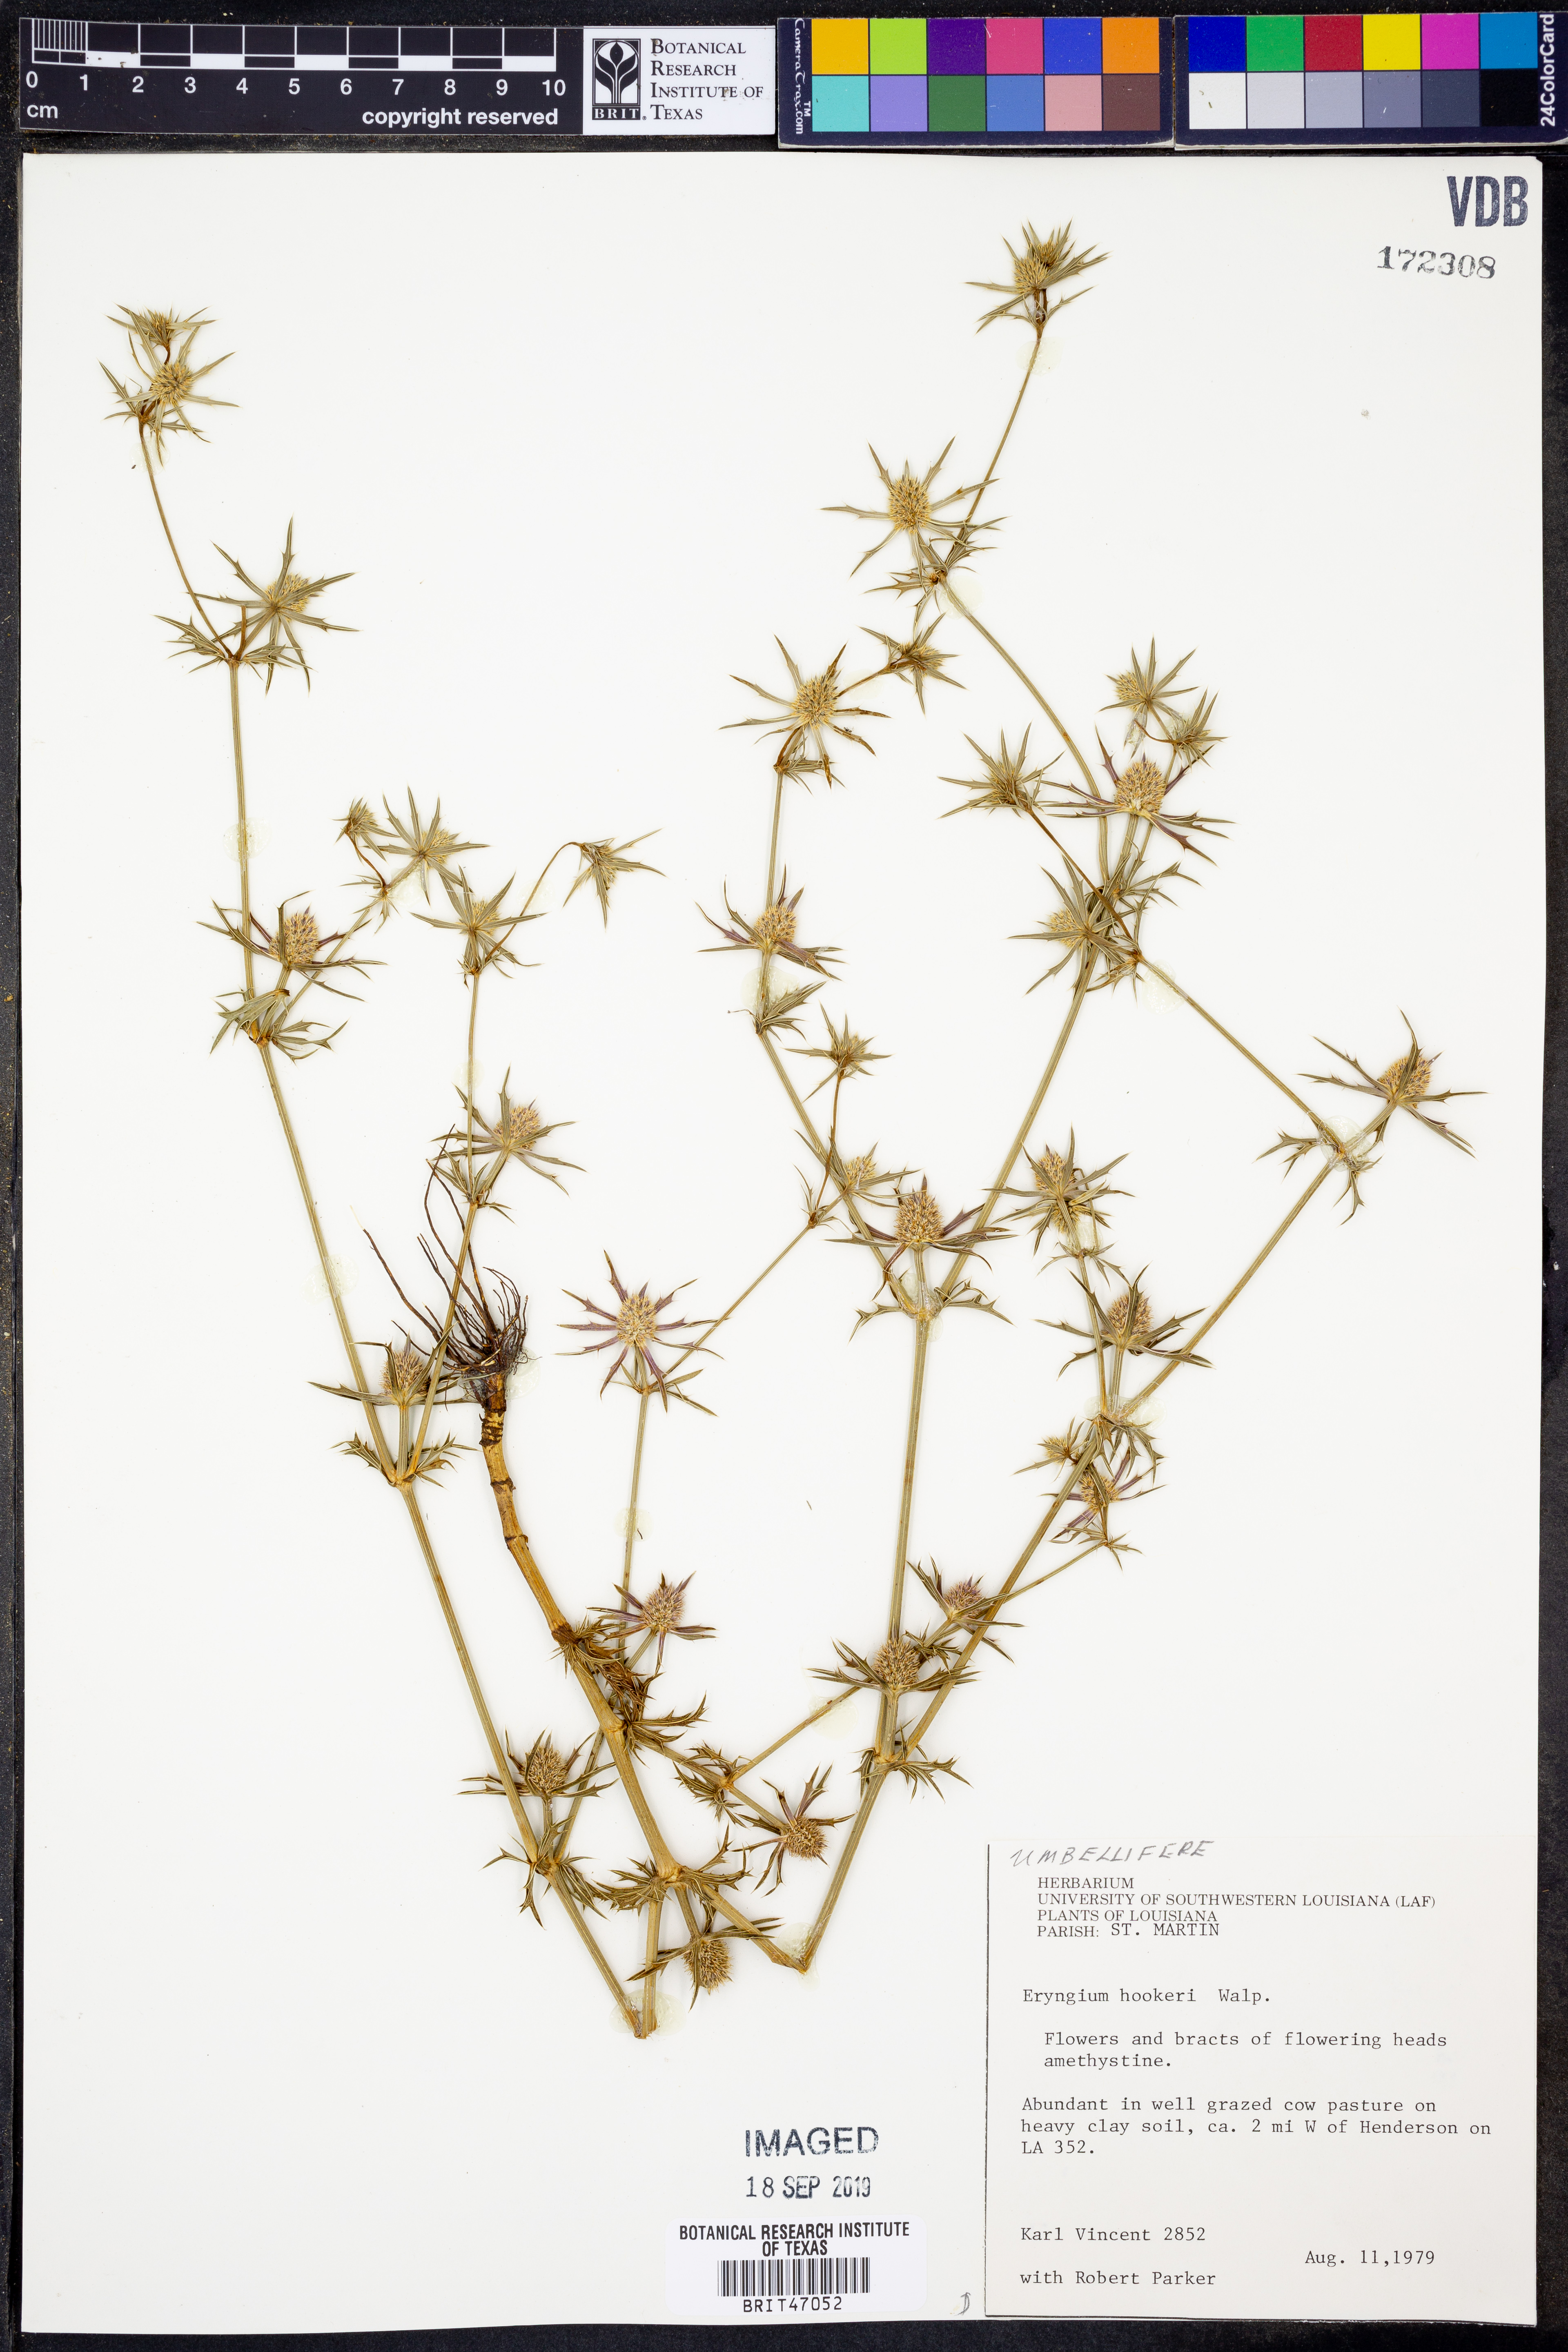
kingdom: Plantae
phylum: Tracheophyta
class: Magnoliopsida
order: Apiales
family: Apiaceae
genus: Eryngium
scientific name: Eryngium hookeri
